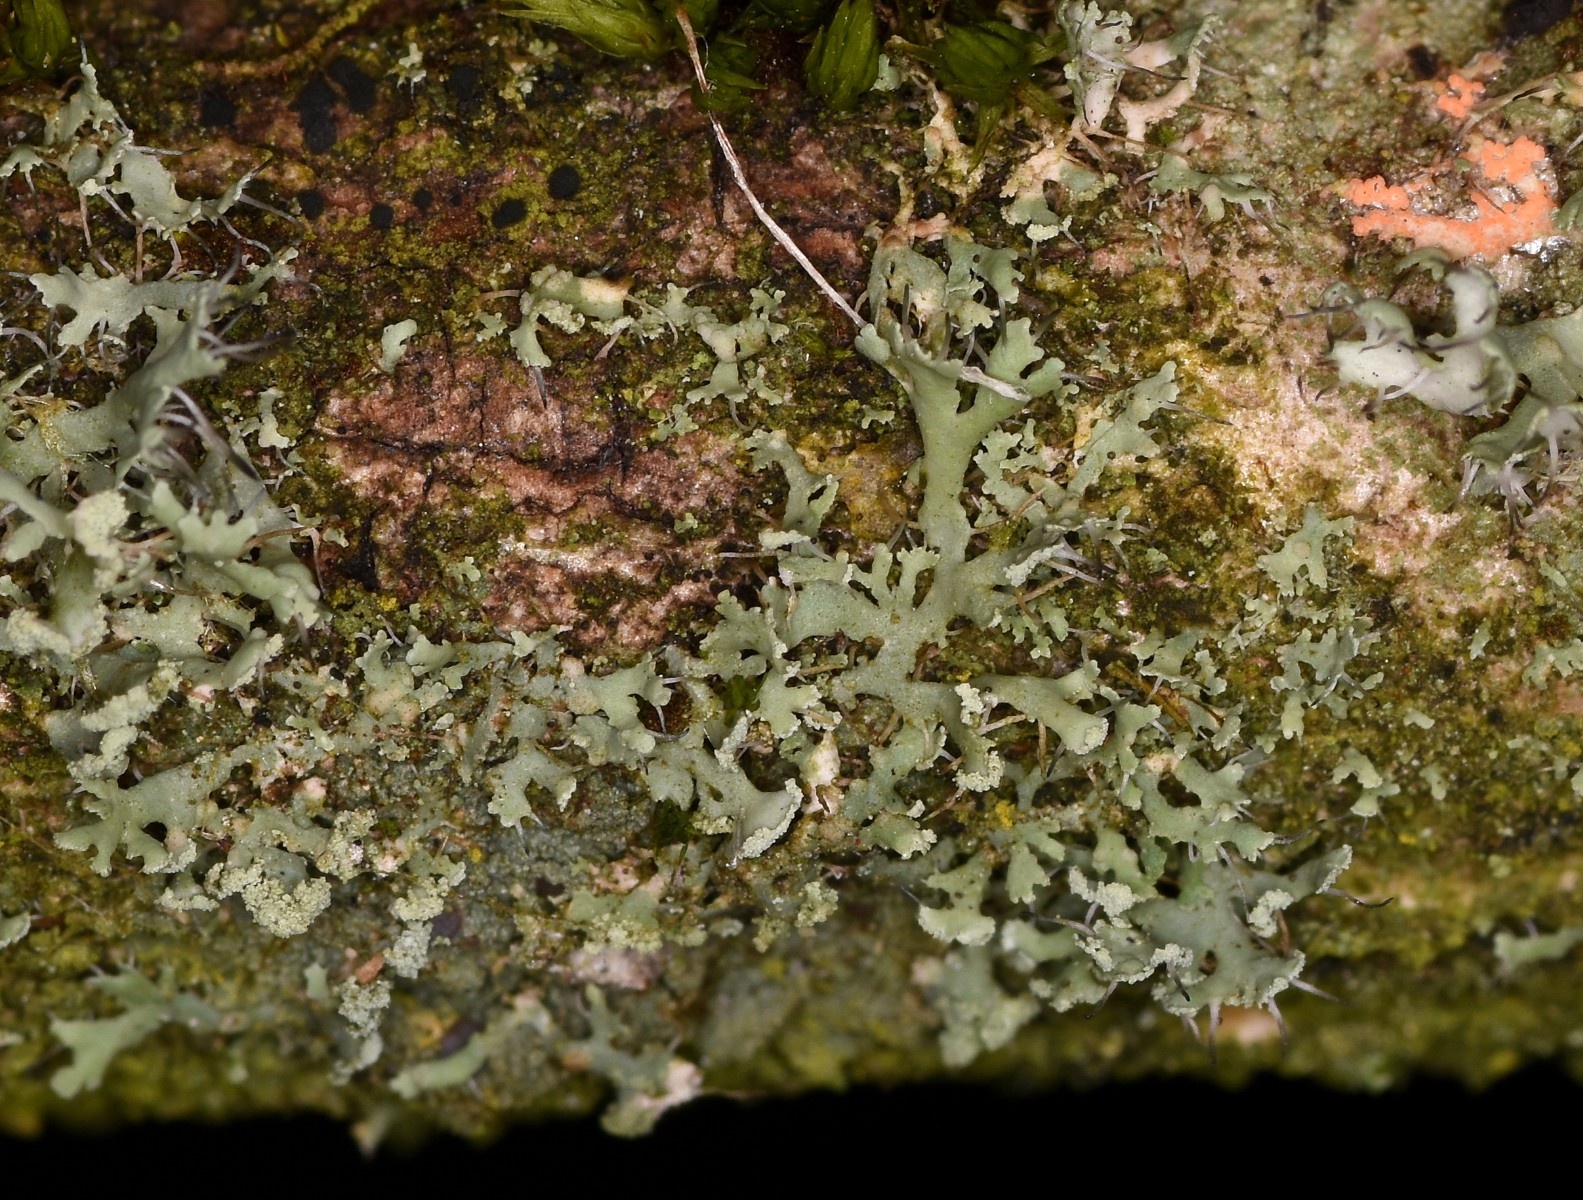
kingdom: Fungi
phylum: Ascomycota
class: Lecanoromycetes
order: Caliciales
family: Physciaceae
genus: Physcia
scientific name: Physcia tenella
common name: spæd rosetlav
